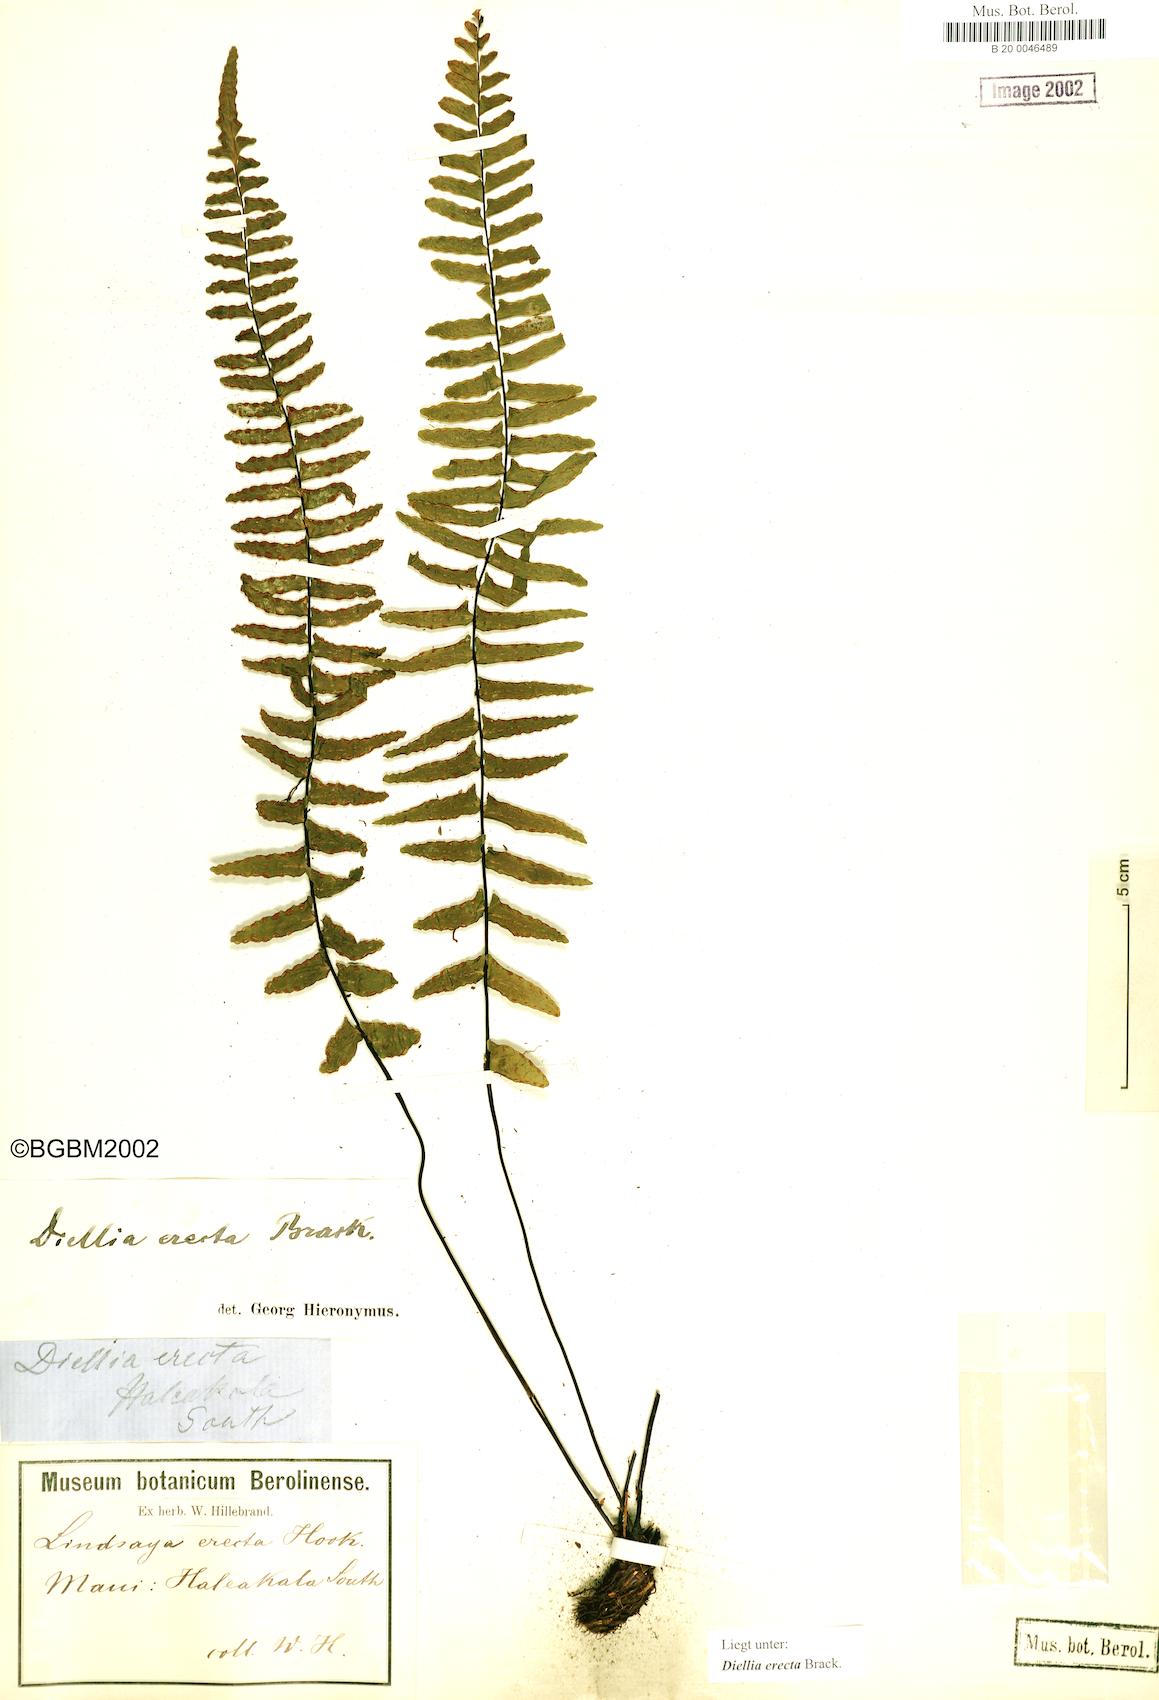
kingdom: Plantae
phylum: Tracheophyta
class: Polypodiopsida
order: Polypodiales
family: Aspleniaceae
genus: Asplenium
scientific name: Asplenium dielerectum
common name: Erect island spleenwort
